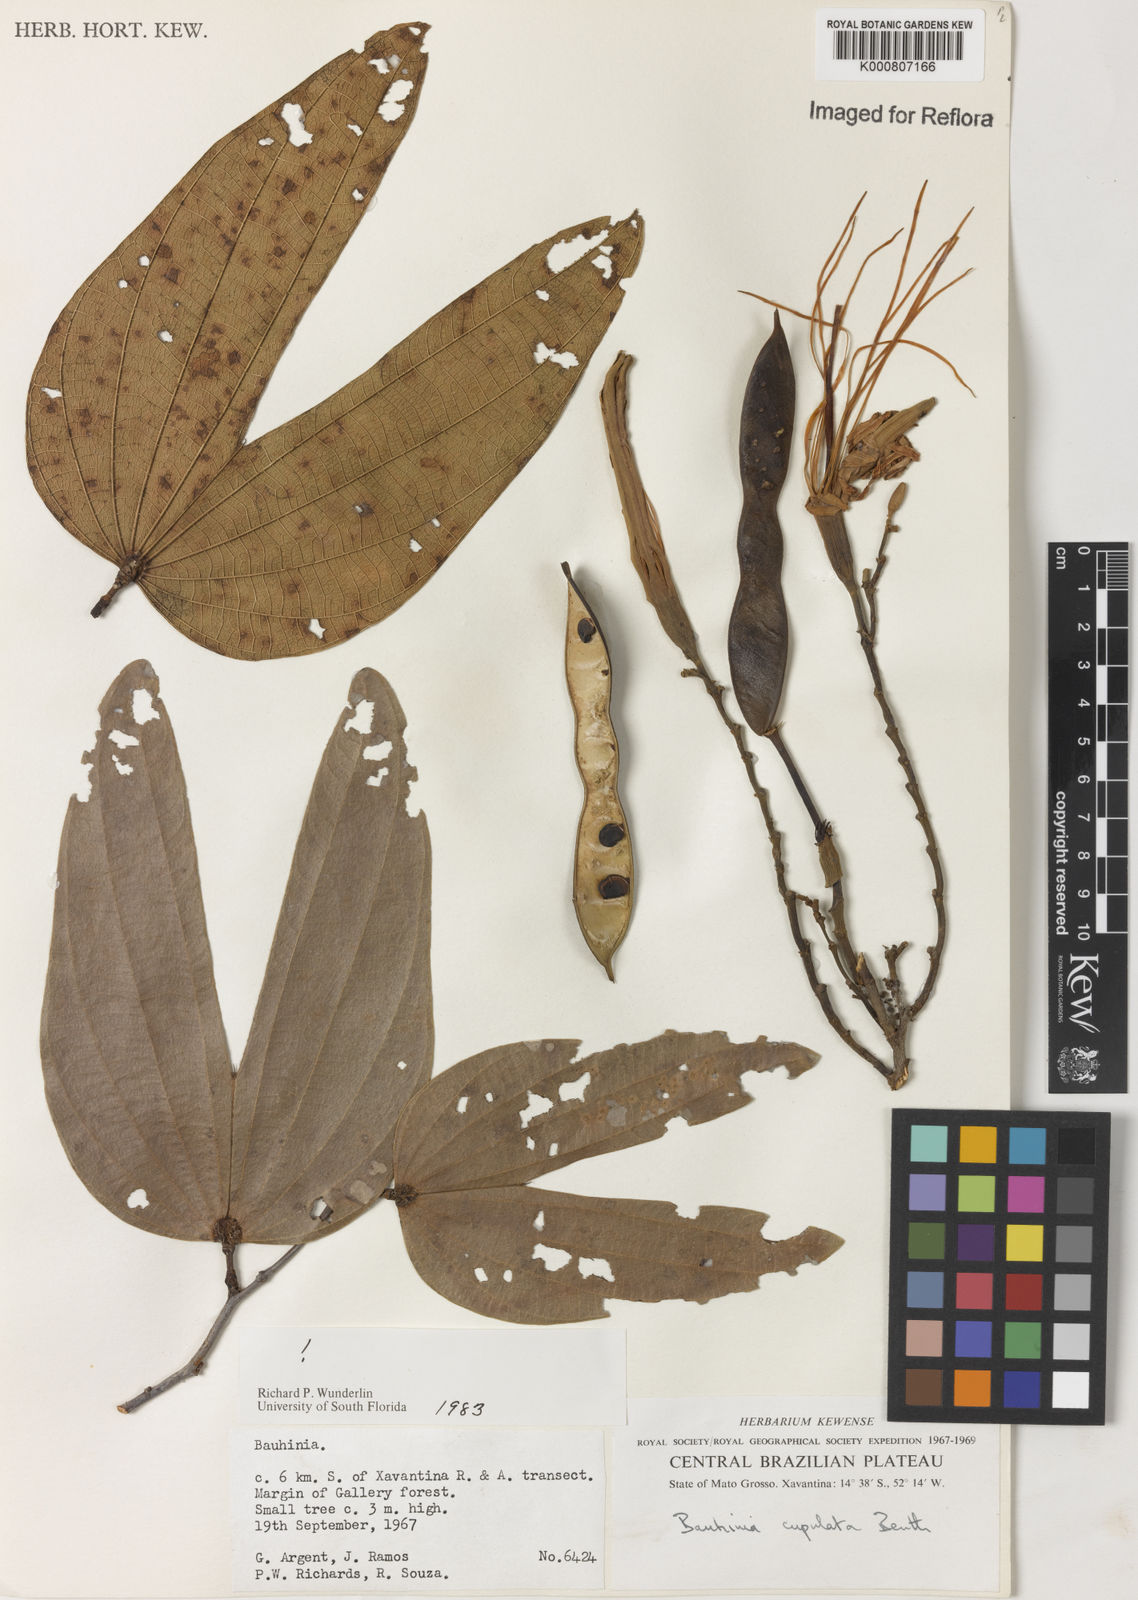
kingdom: Plantae
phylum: Tracheophyta
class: Magnoliopsida
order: Fabales
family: Fabaceae
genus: Bauhinia
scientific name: Bauhinia cupulata
